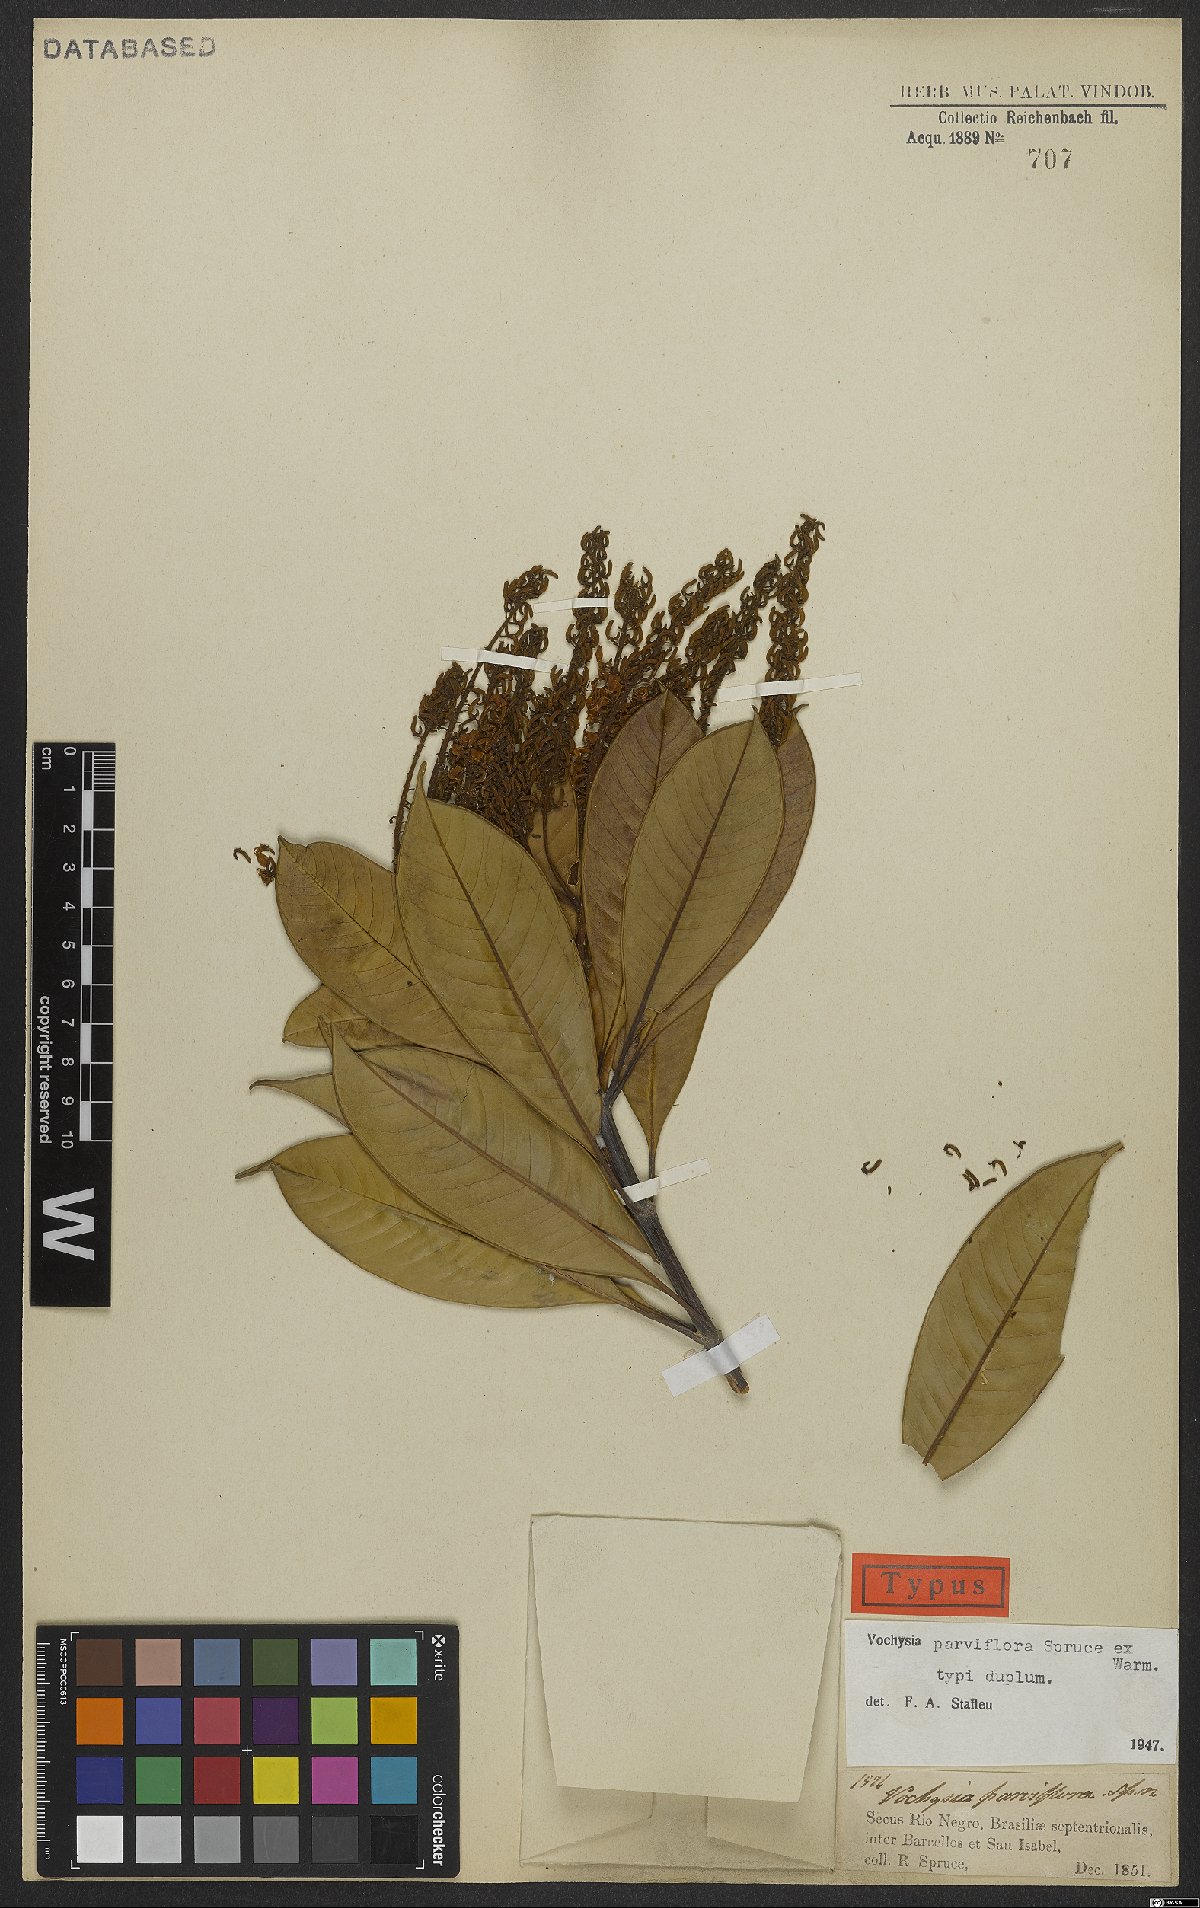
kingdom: Plantae
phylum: Tracheophyta
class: Magnoliopsida
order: Myrtales
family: Vochysiaceae
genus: Vochysia
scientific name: Vochysia parviflora
